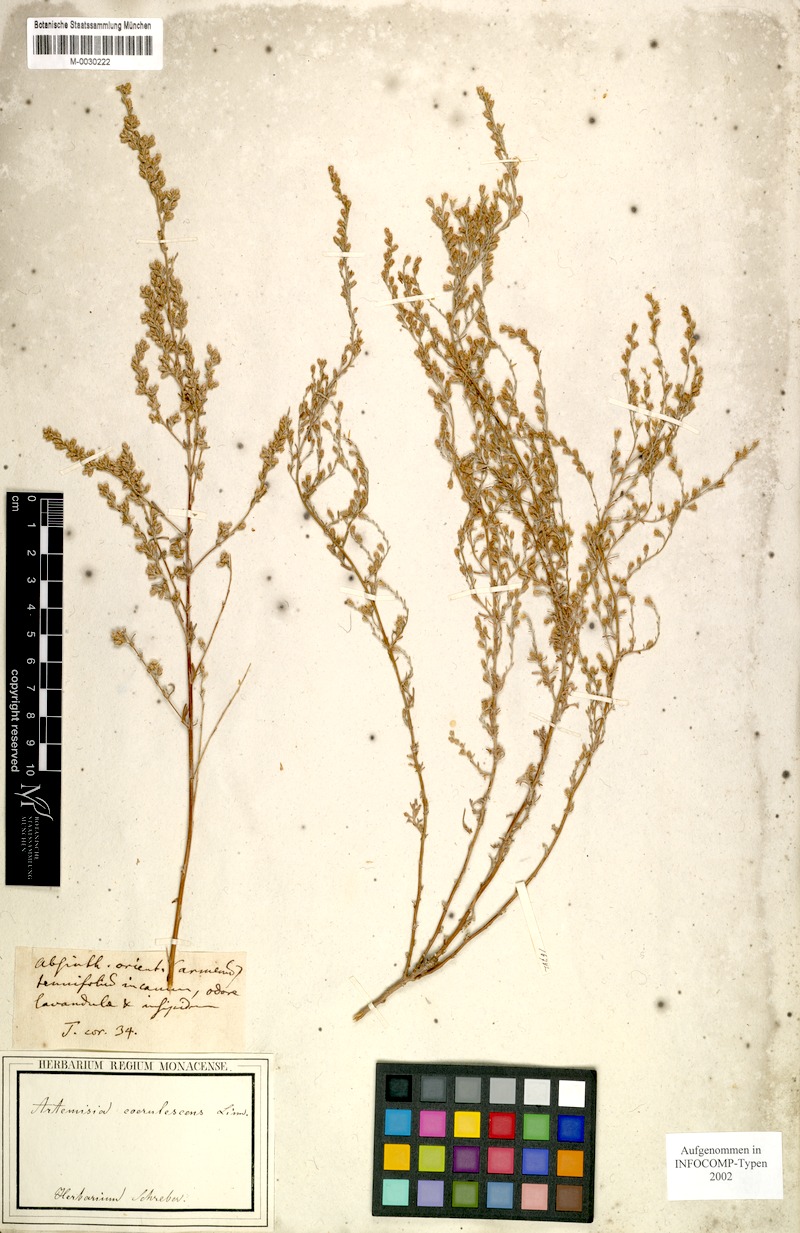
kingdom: Plantae
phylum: Tracheophyta
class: Magnoliopsida
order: Asterales
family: Asteraceae
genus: Artemisia
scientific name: Artemisia caerulescens
